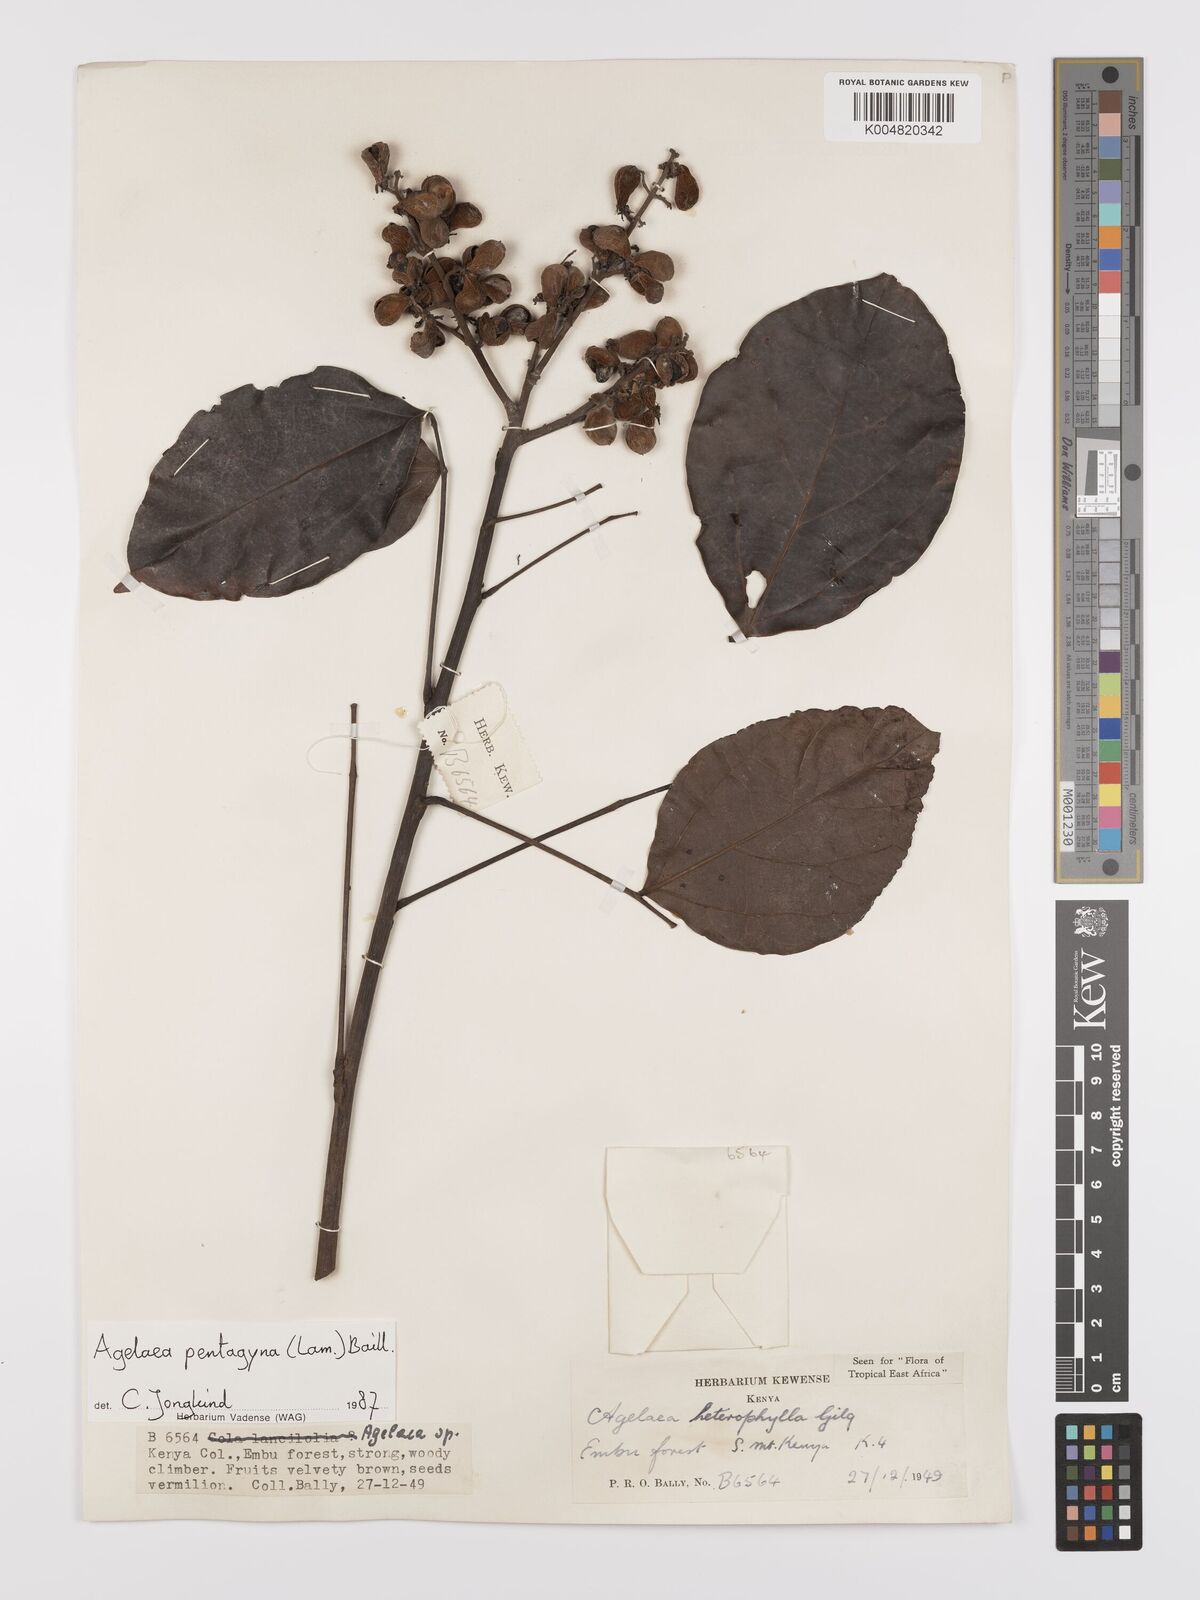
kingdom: Plantae
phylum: Tracheophyta
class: Magnoliopsida
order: Oxalidales
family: Connaraceae
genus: Agelaea
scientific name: Agelaea pentagyna
